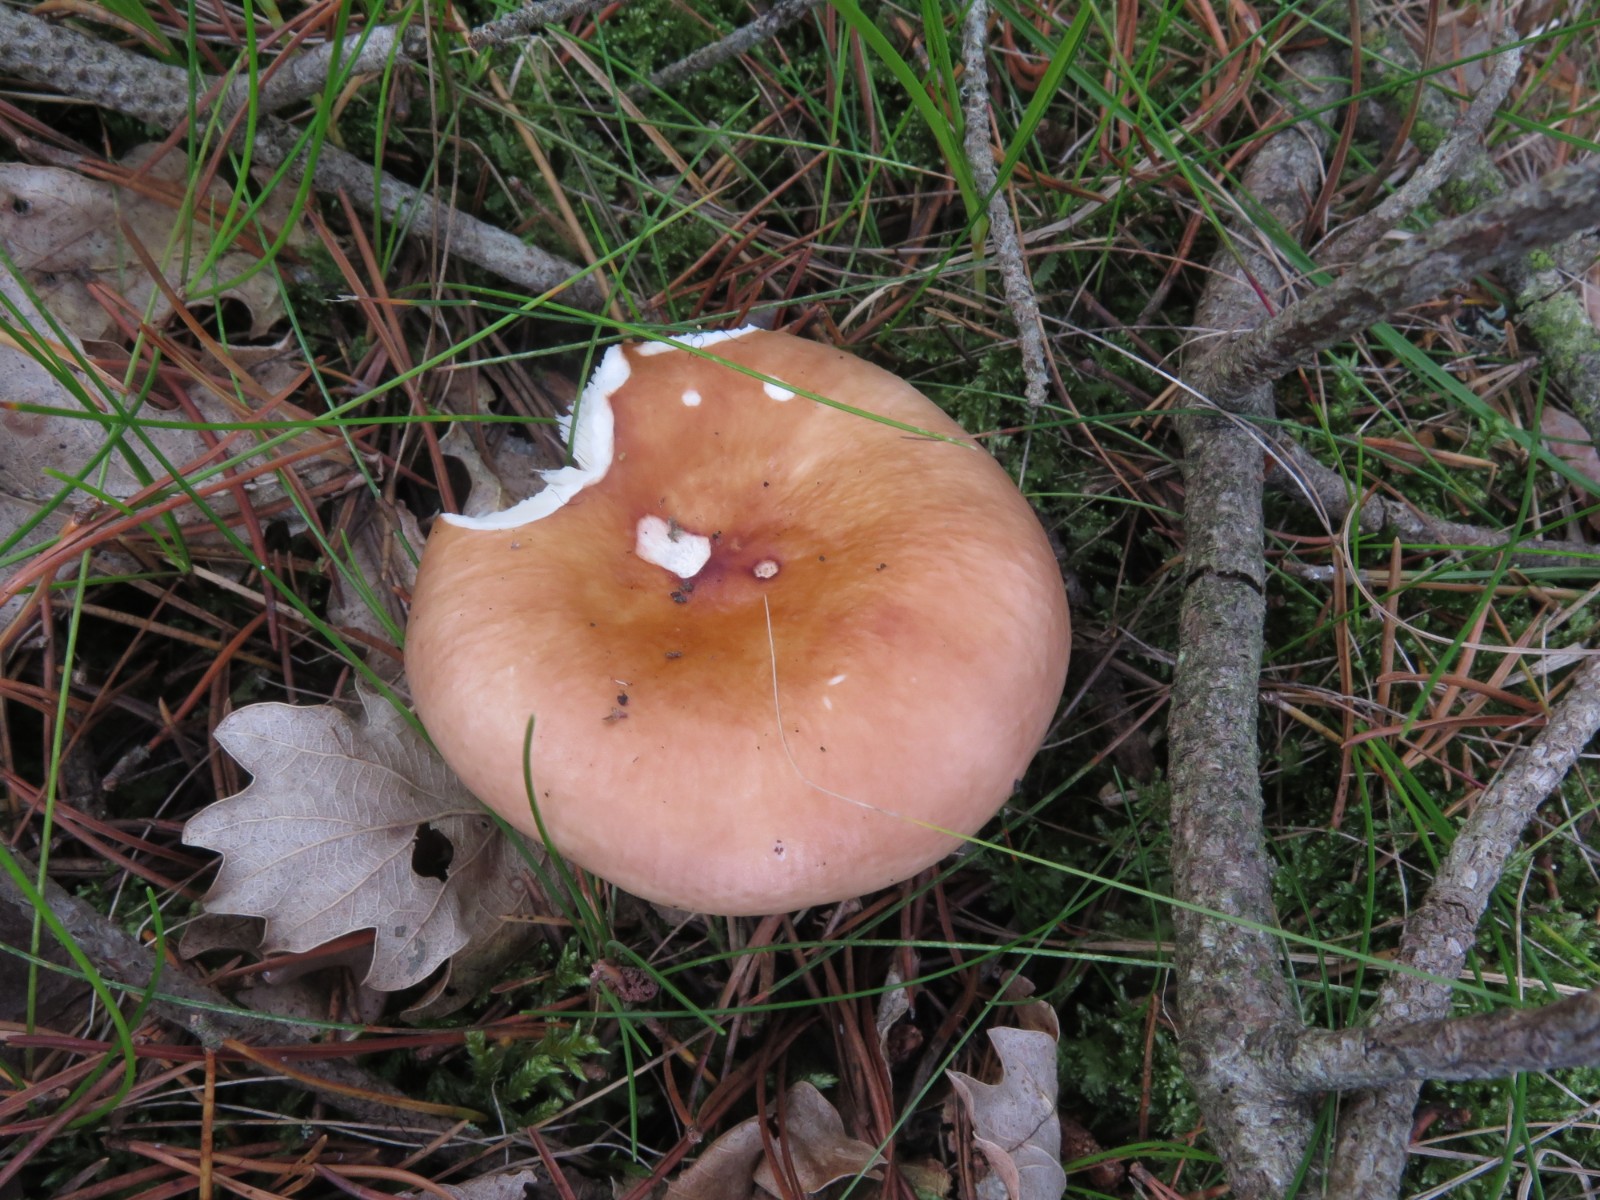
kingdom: Fungi
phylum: Basidiomycota
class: Agaricomycetes
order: Russulales
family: Russulaceae
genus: Russula
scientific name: Russula vesca
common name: spiselig skørhat
